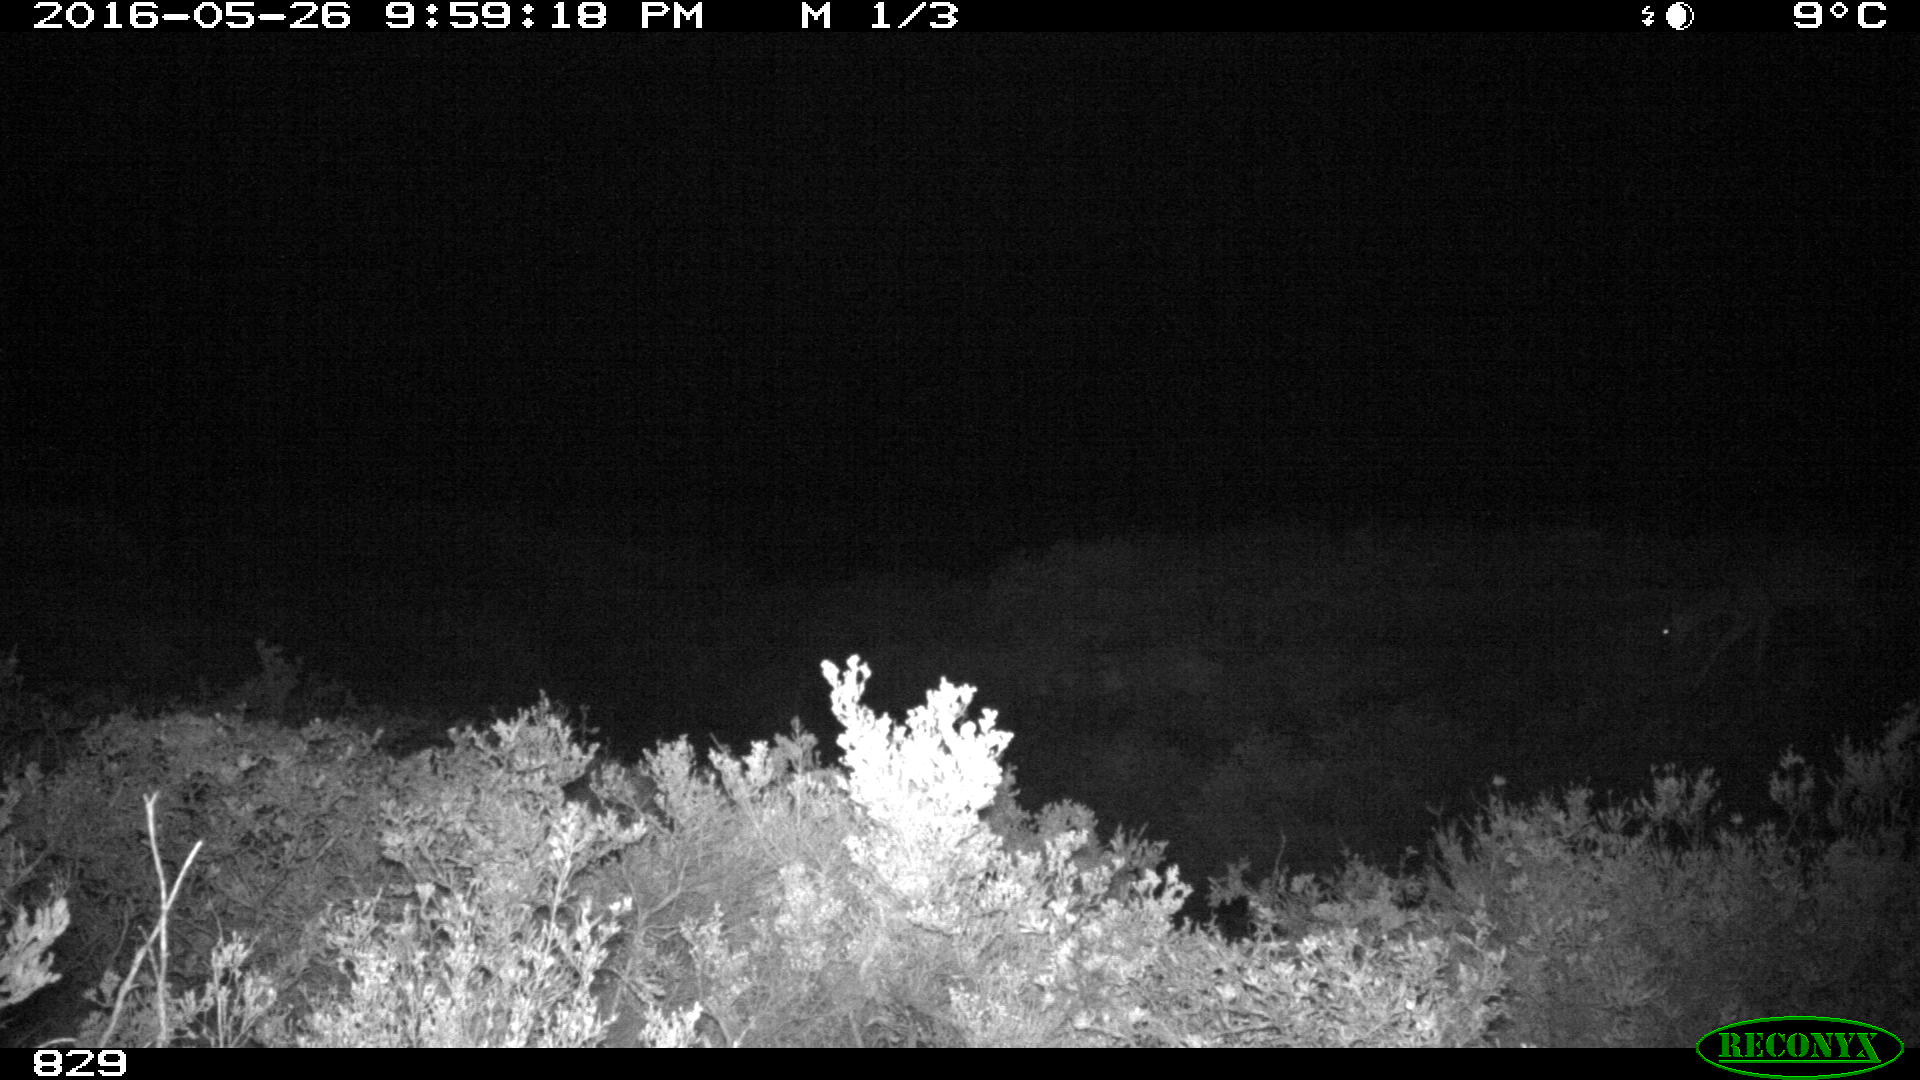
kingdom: Animalia
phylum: Chordata
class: Mammalia
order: Artiodactyla
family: Cervidae
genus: Capreolus
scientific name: Capreolus capreolus
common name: Western roe deer
